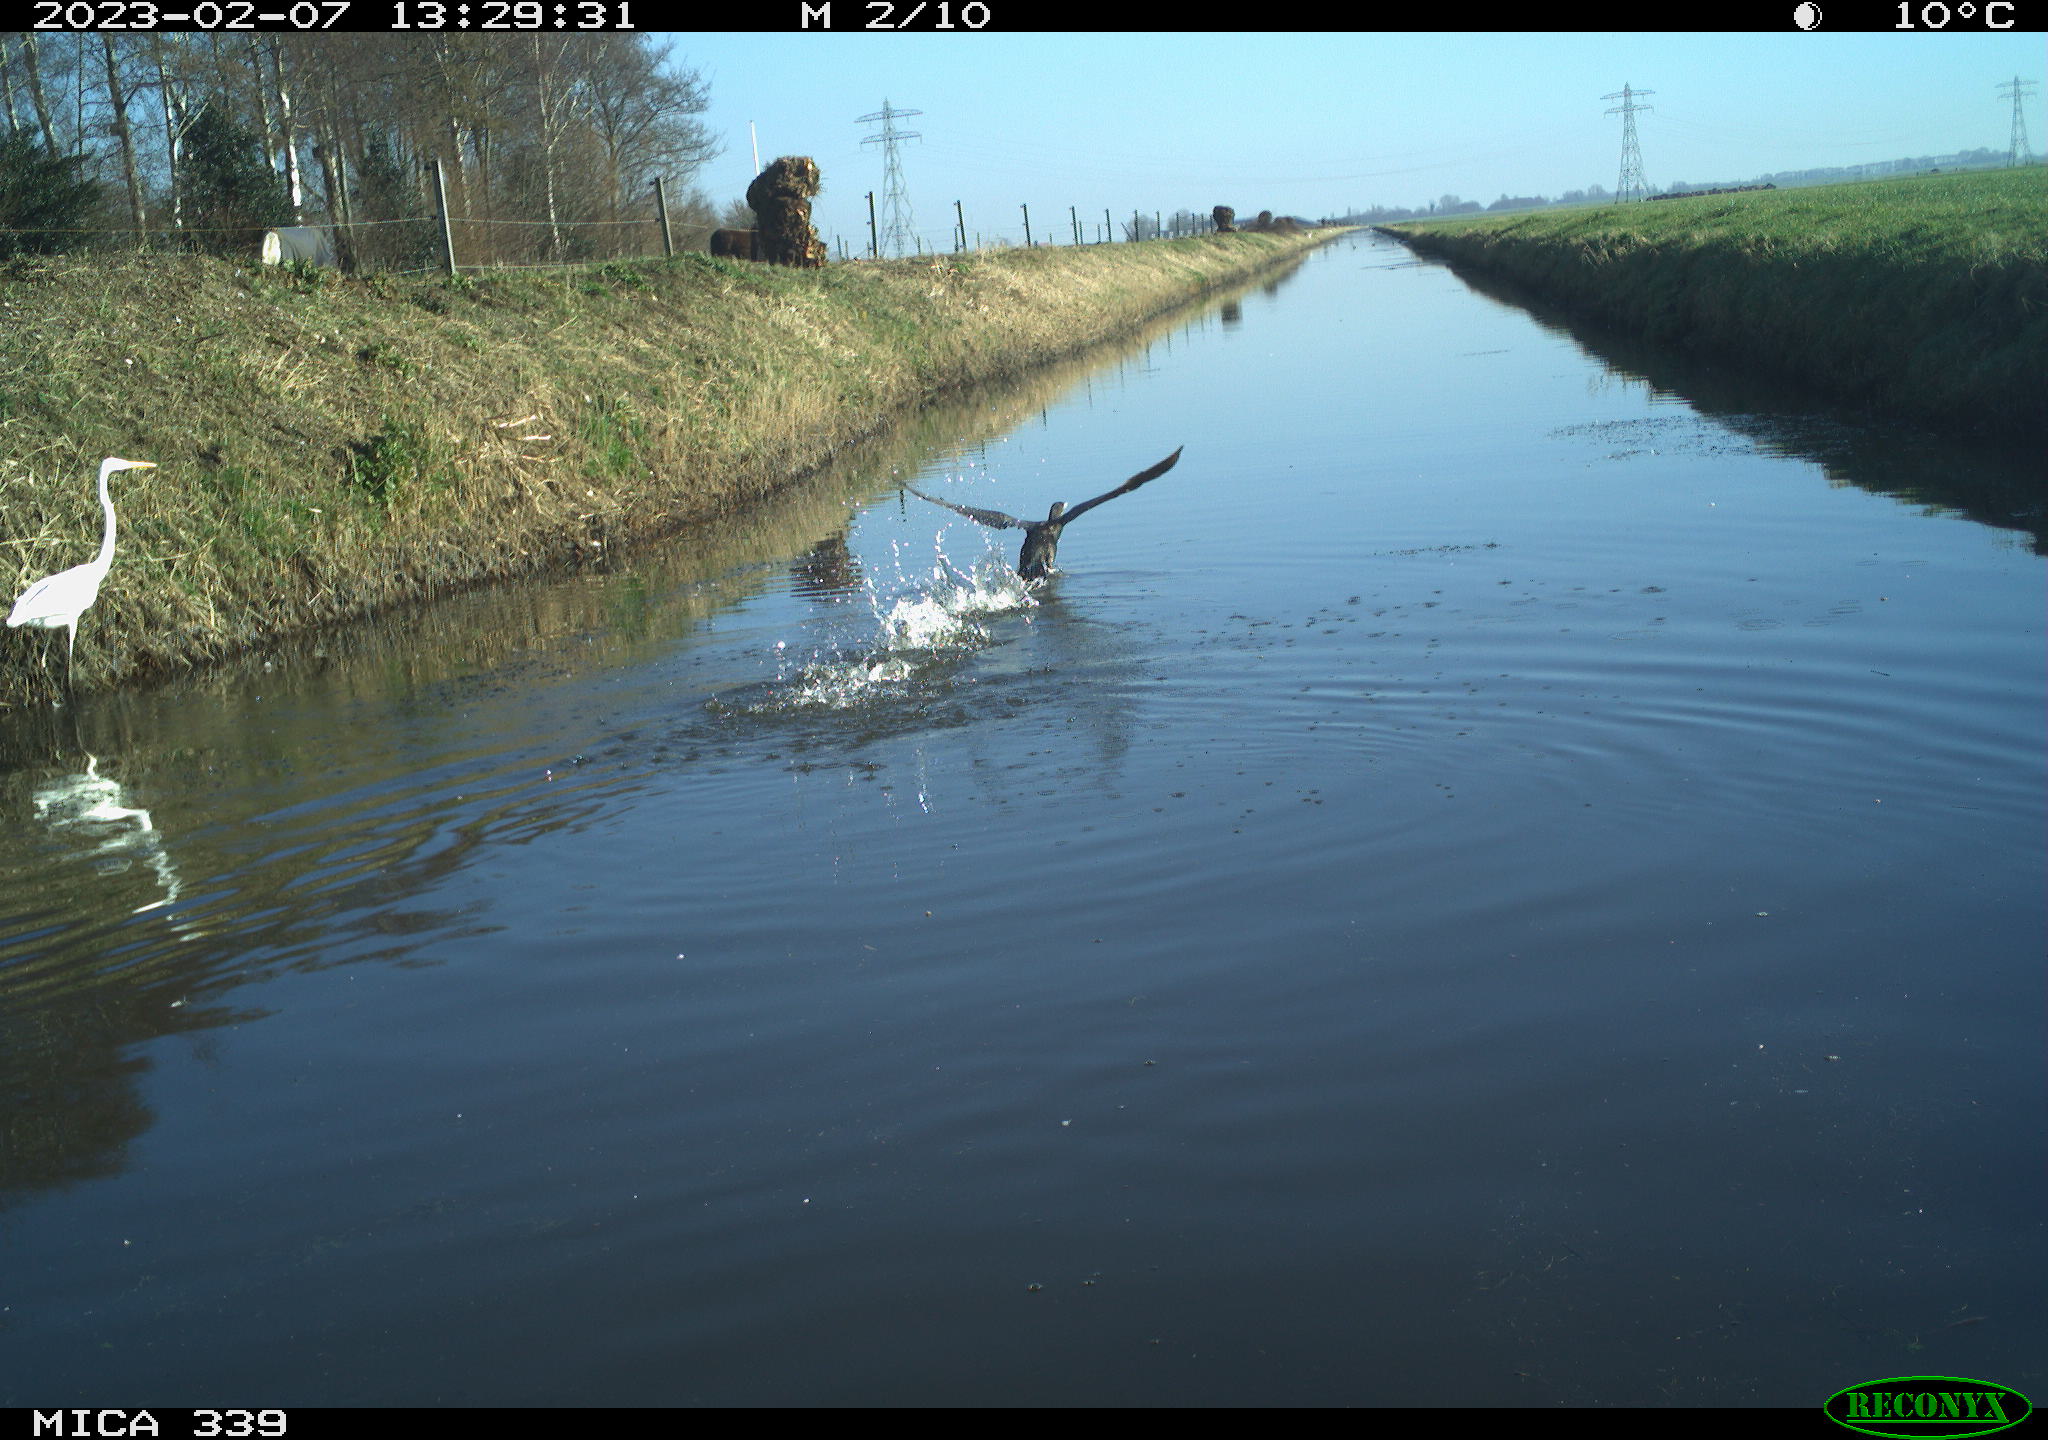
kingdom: Animalia
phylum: Chordata
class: Aves
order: Pelecaniformes
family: Ardeidae
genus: Ardea
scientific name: Ardea alba
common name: Great egret
